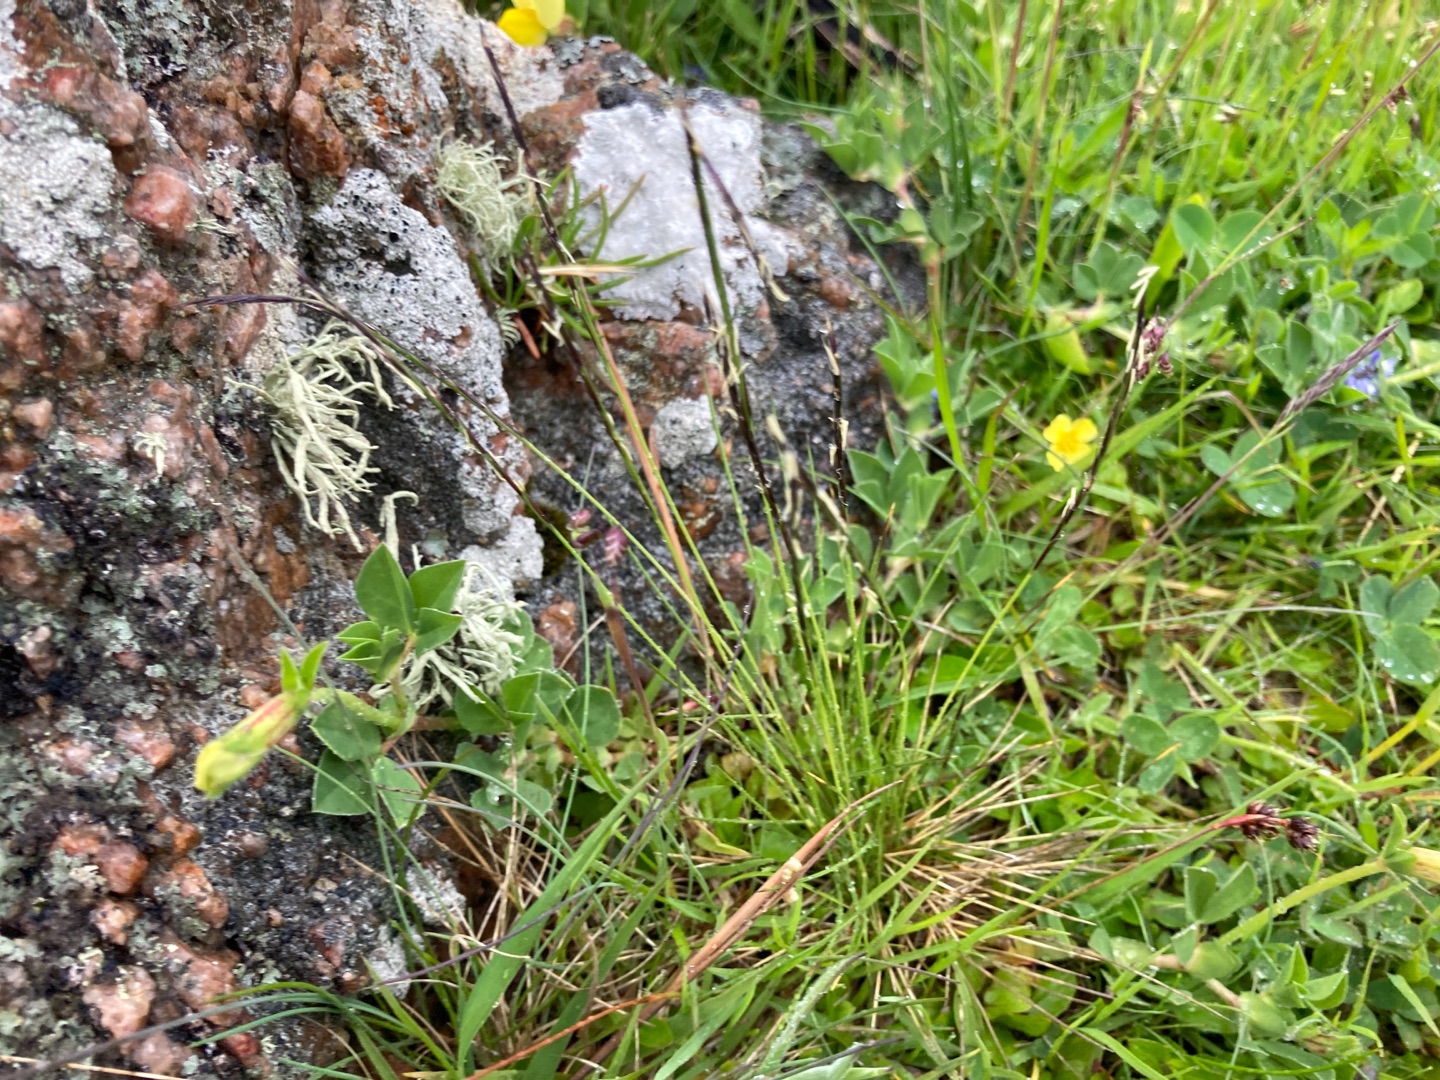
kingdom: Plantae
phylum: Tracheophyta
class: Liliopsida
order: Poales
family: Poaceae
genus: Nardus
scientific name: Nardus stricta
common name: Katteskæg
